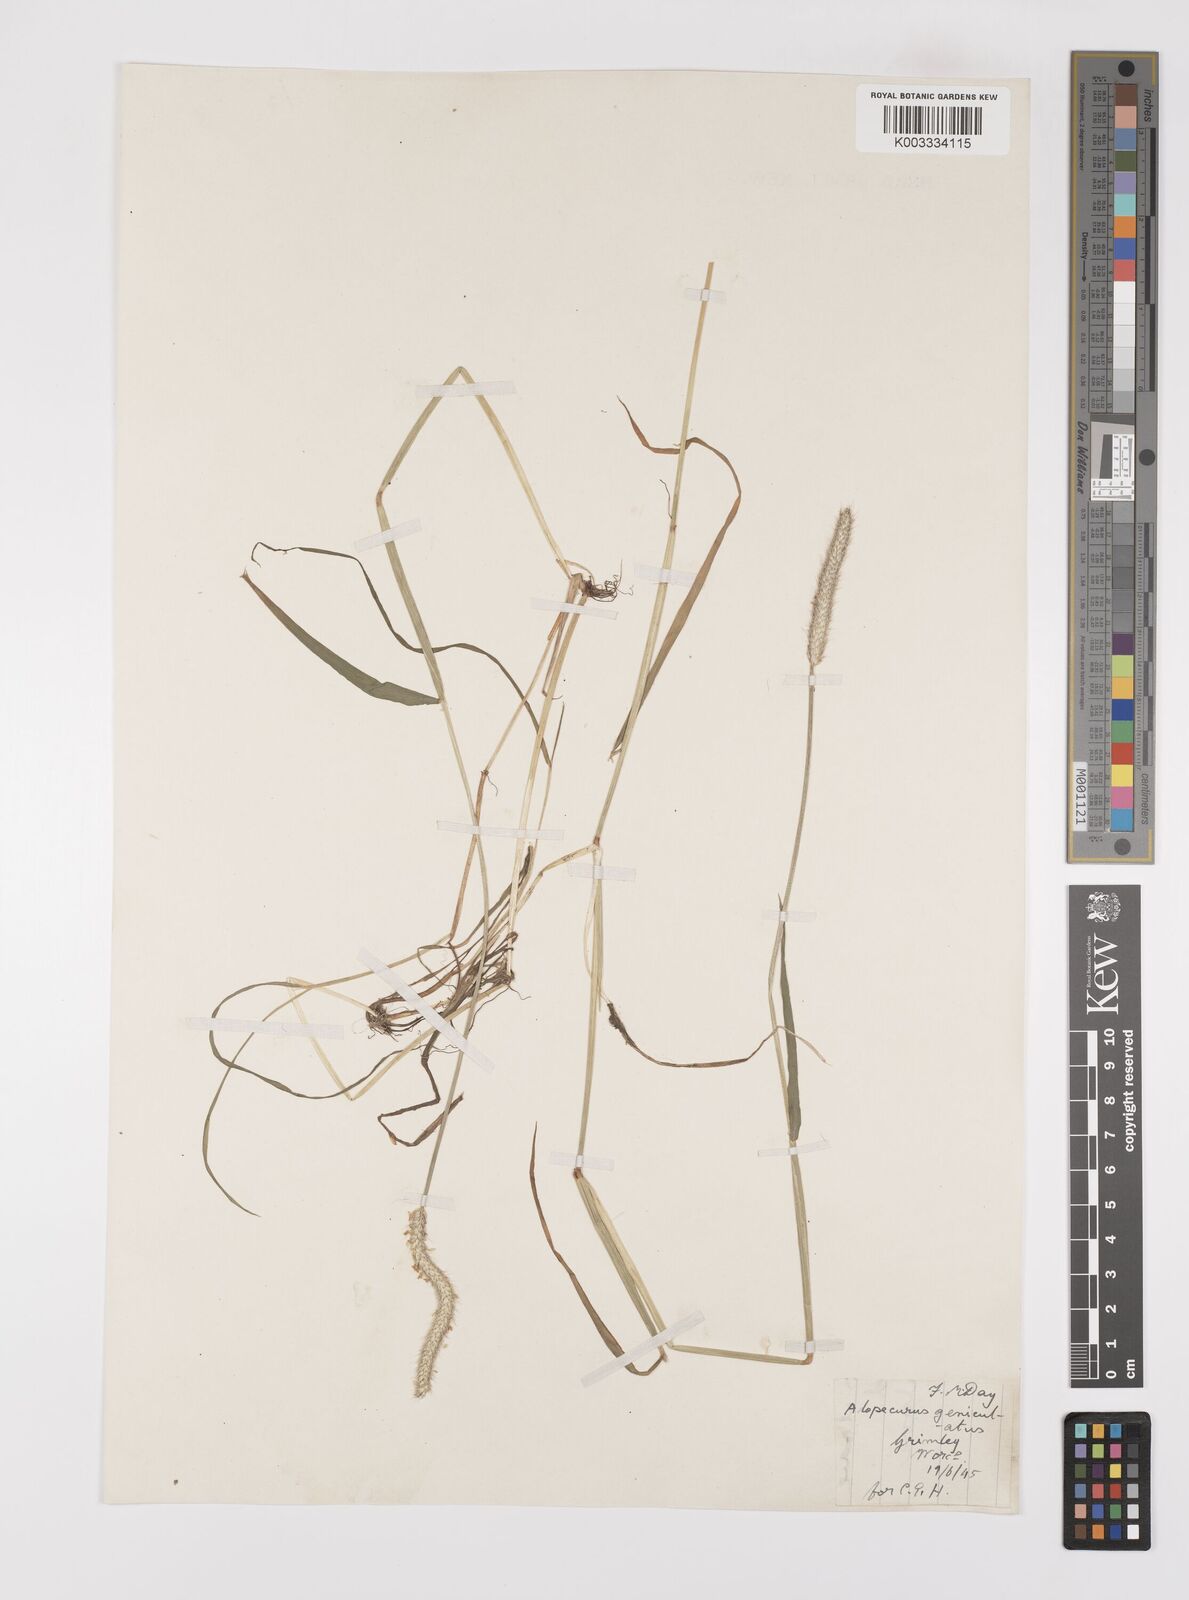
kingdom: Plantae
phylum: Tracheophyta
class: Liliopsida
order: Poales
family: Poaceae
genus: Alopecurus
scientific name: Alopecurus geniculatus
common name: Water foxtail
